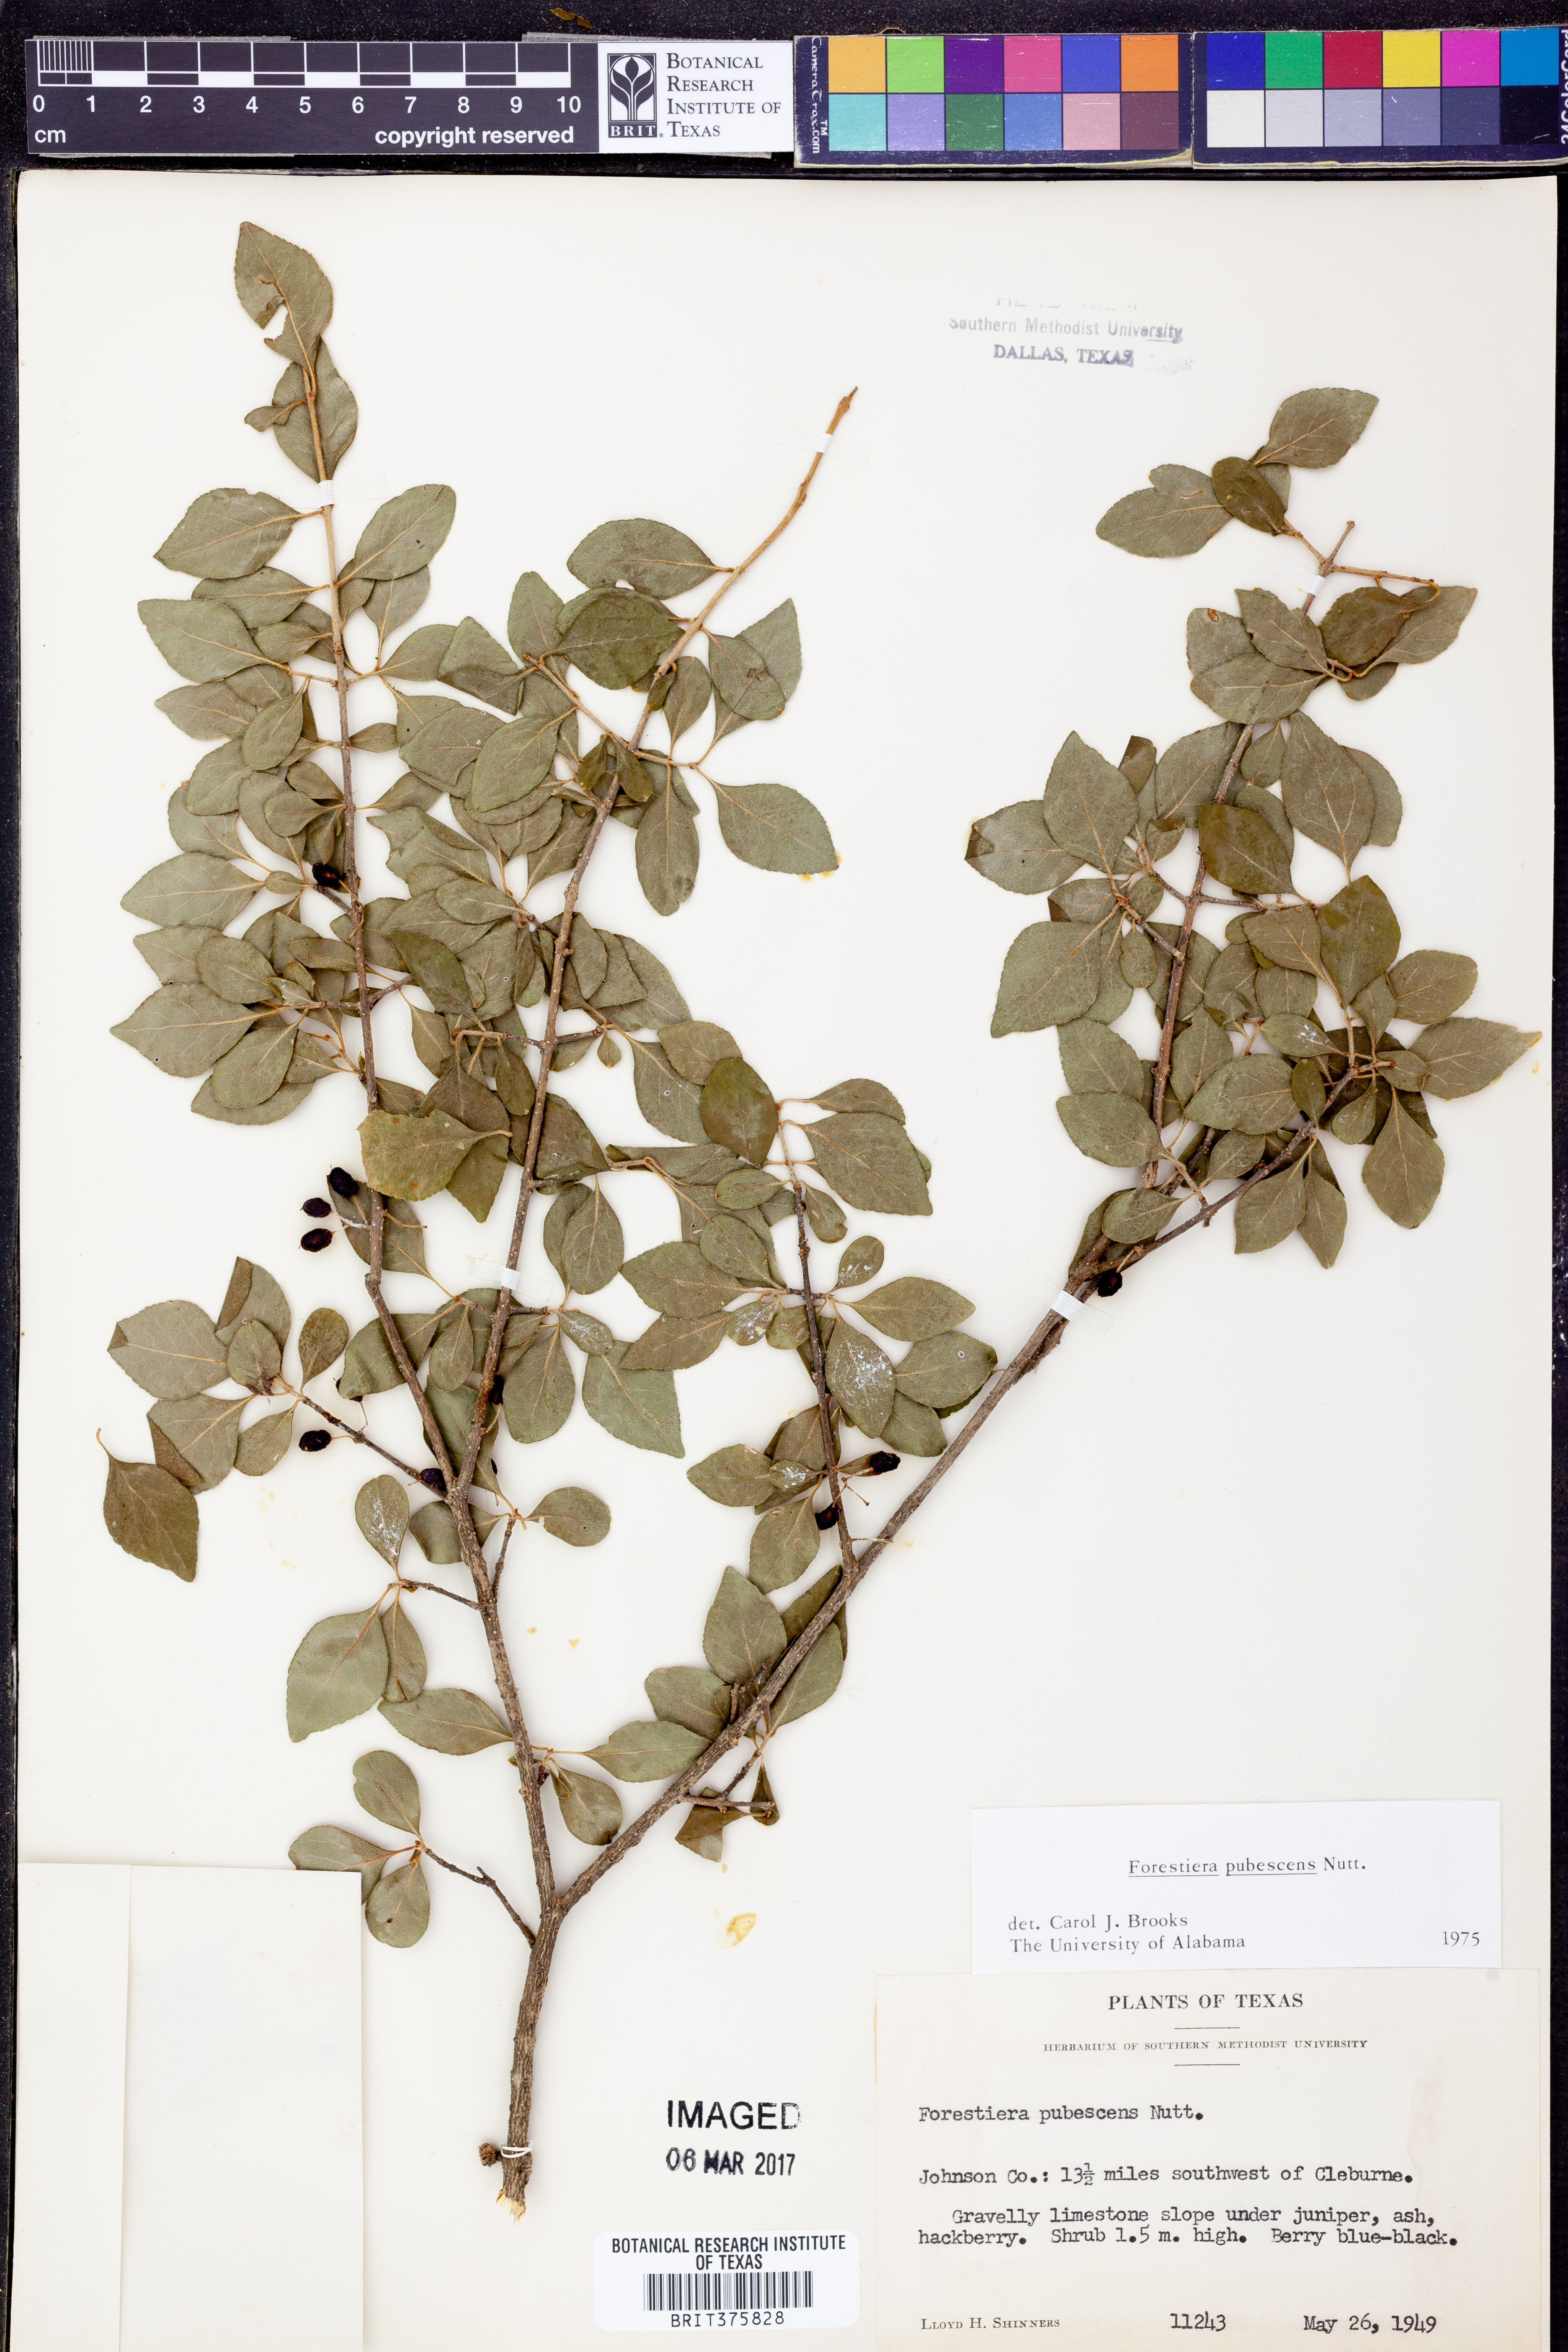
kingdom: Plantae
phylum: Tracheophyta
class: Magnoliopsida
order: Lamiales
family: Oleaceae
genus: Forestiera
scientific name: Forestiera pubescens
